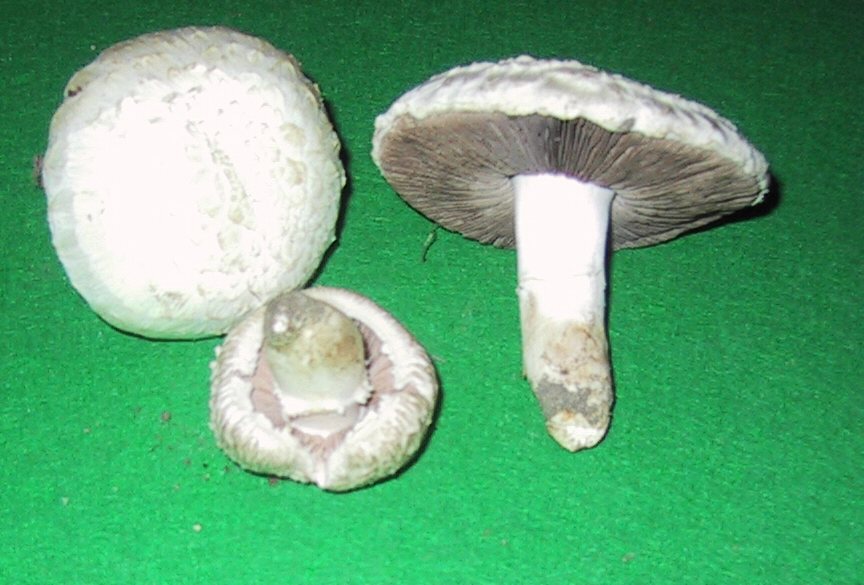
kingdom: Fungi
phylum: Basidiomycota
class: Agaricomycetes
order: Agaricales
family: Agaricaceae
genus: Agaricus
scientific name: Agaricus campestris
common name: mark-champignon
